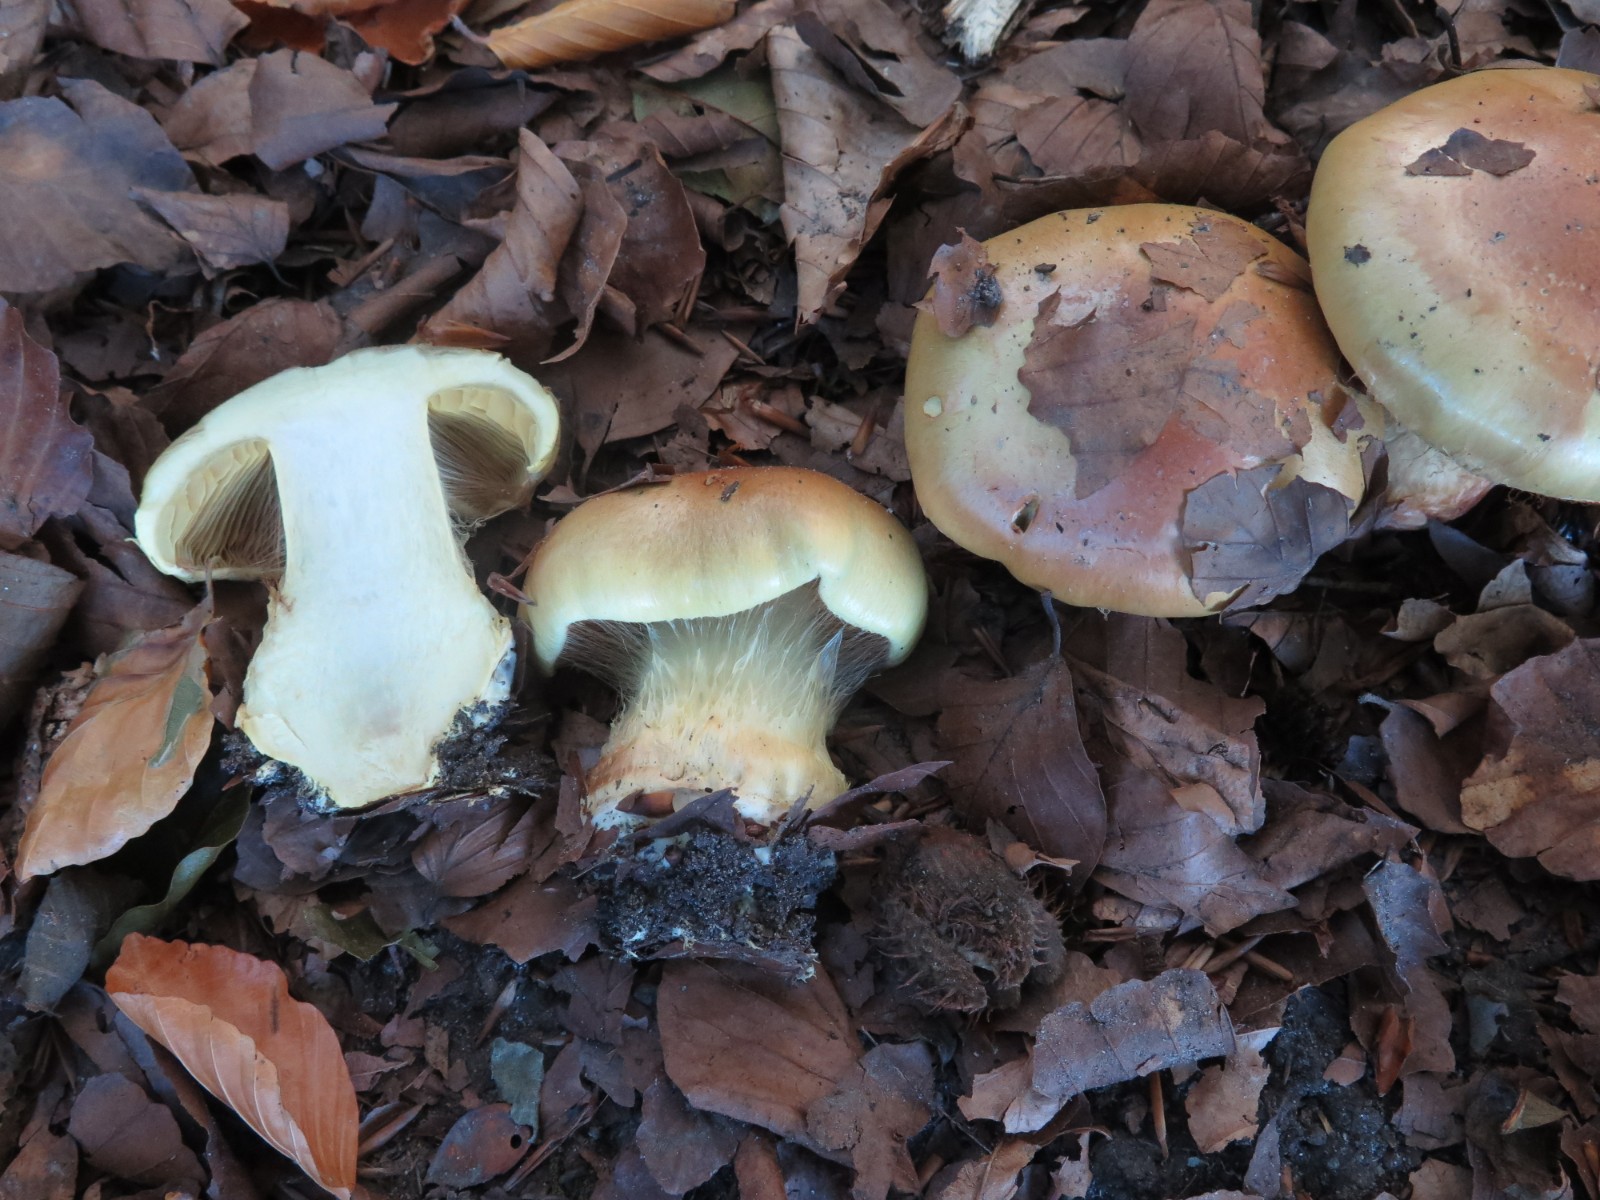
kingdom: Fungi
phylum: Basidiomycota
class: Agaricomycetes
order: Agaricales
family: Cortinariaceae
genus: Calonarius
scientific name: Calonarius elegantissimus
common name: orangegylden slørhat
